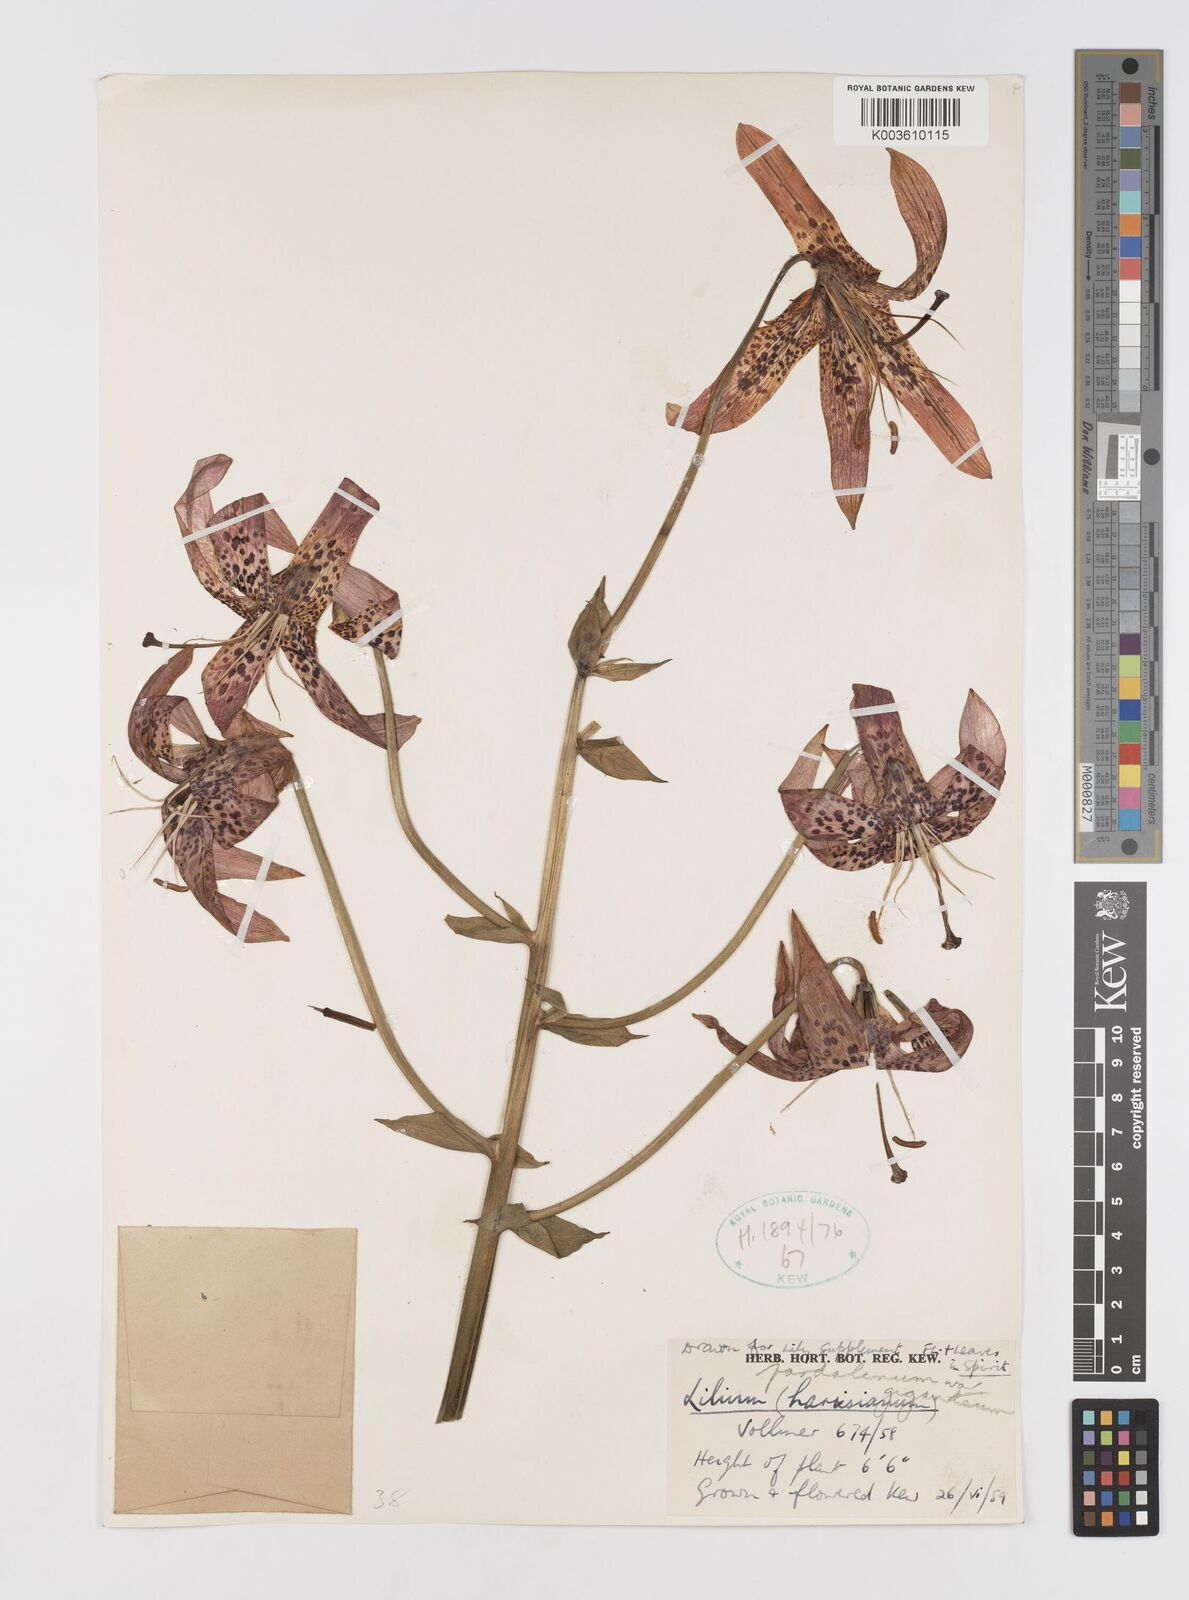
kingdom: Plantae
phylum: Tracheophyta
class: Liliopsida
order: Liliales
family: Liliaceae
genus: Lilium
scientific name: Lilium pardalinum
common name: Panther lily
